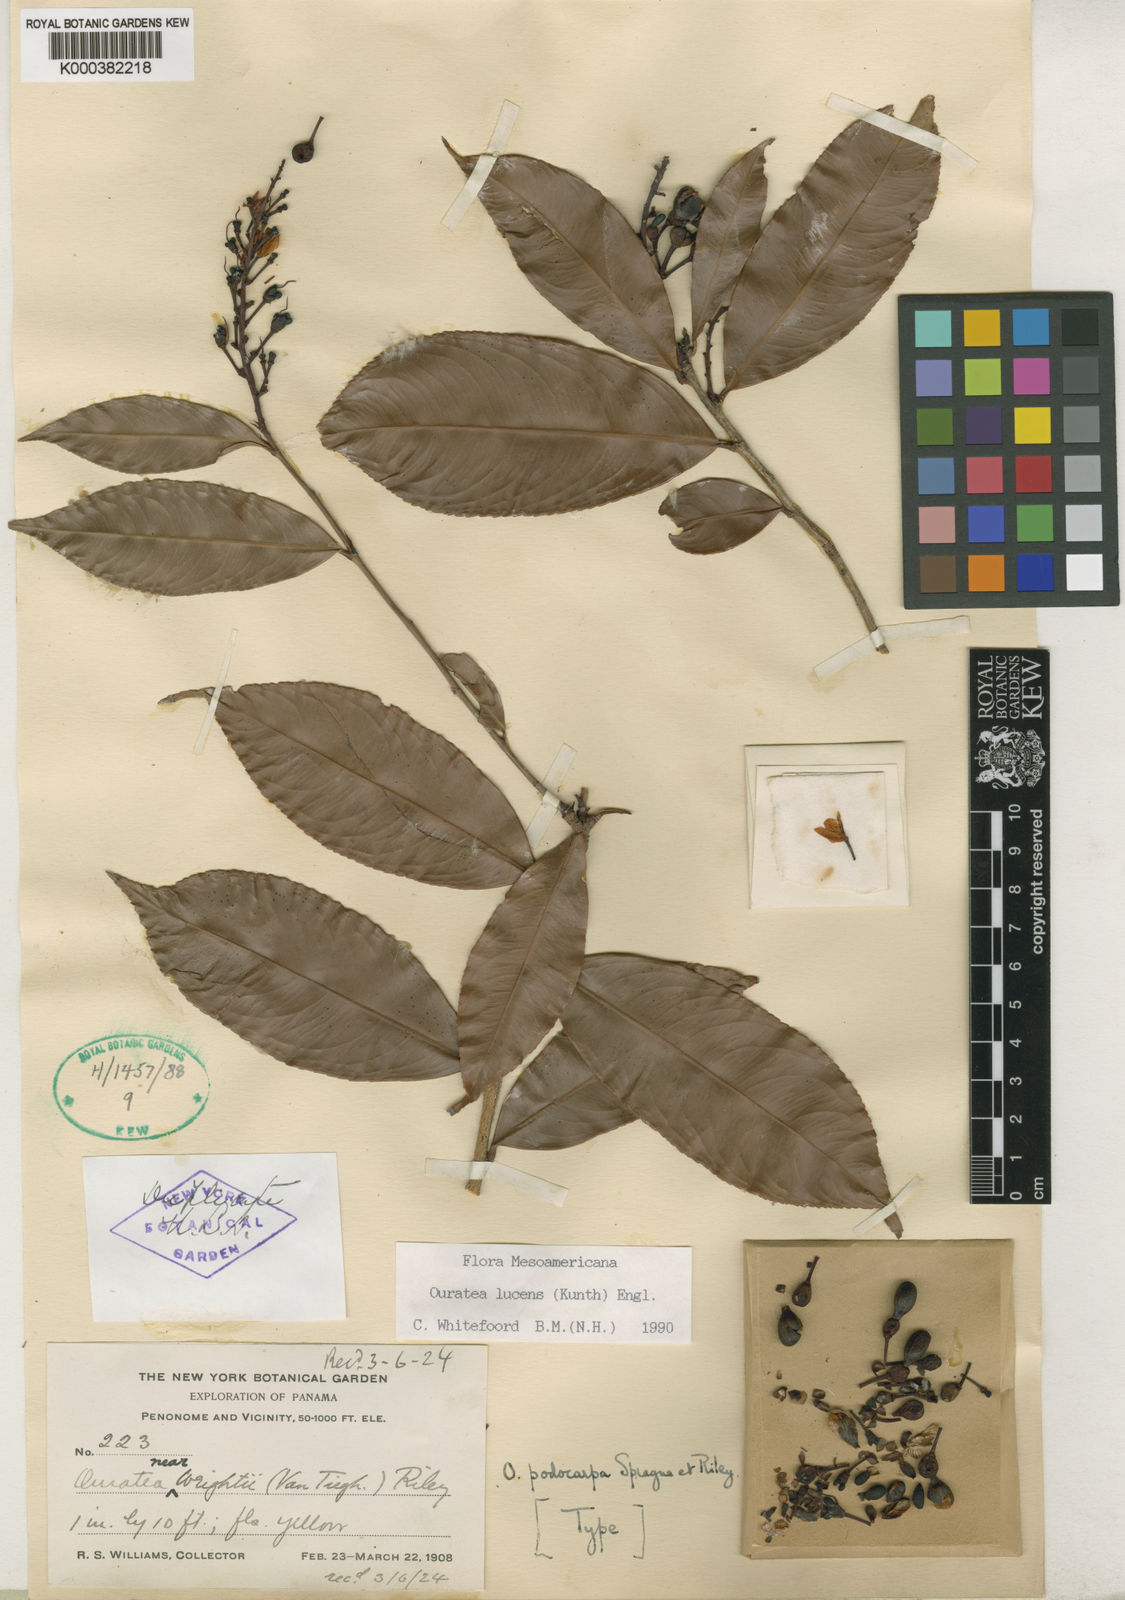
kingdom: Plantae
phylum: Tracheophyta
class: Magnoliopsida
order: Malpighiales
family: Ochnaceae
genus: Ouratea
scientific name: Ouratea lucens
